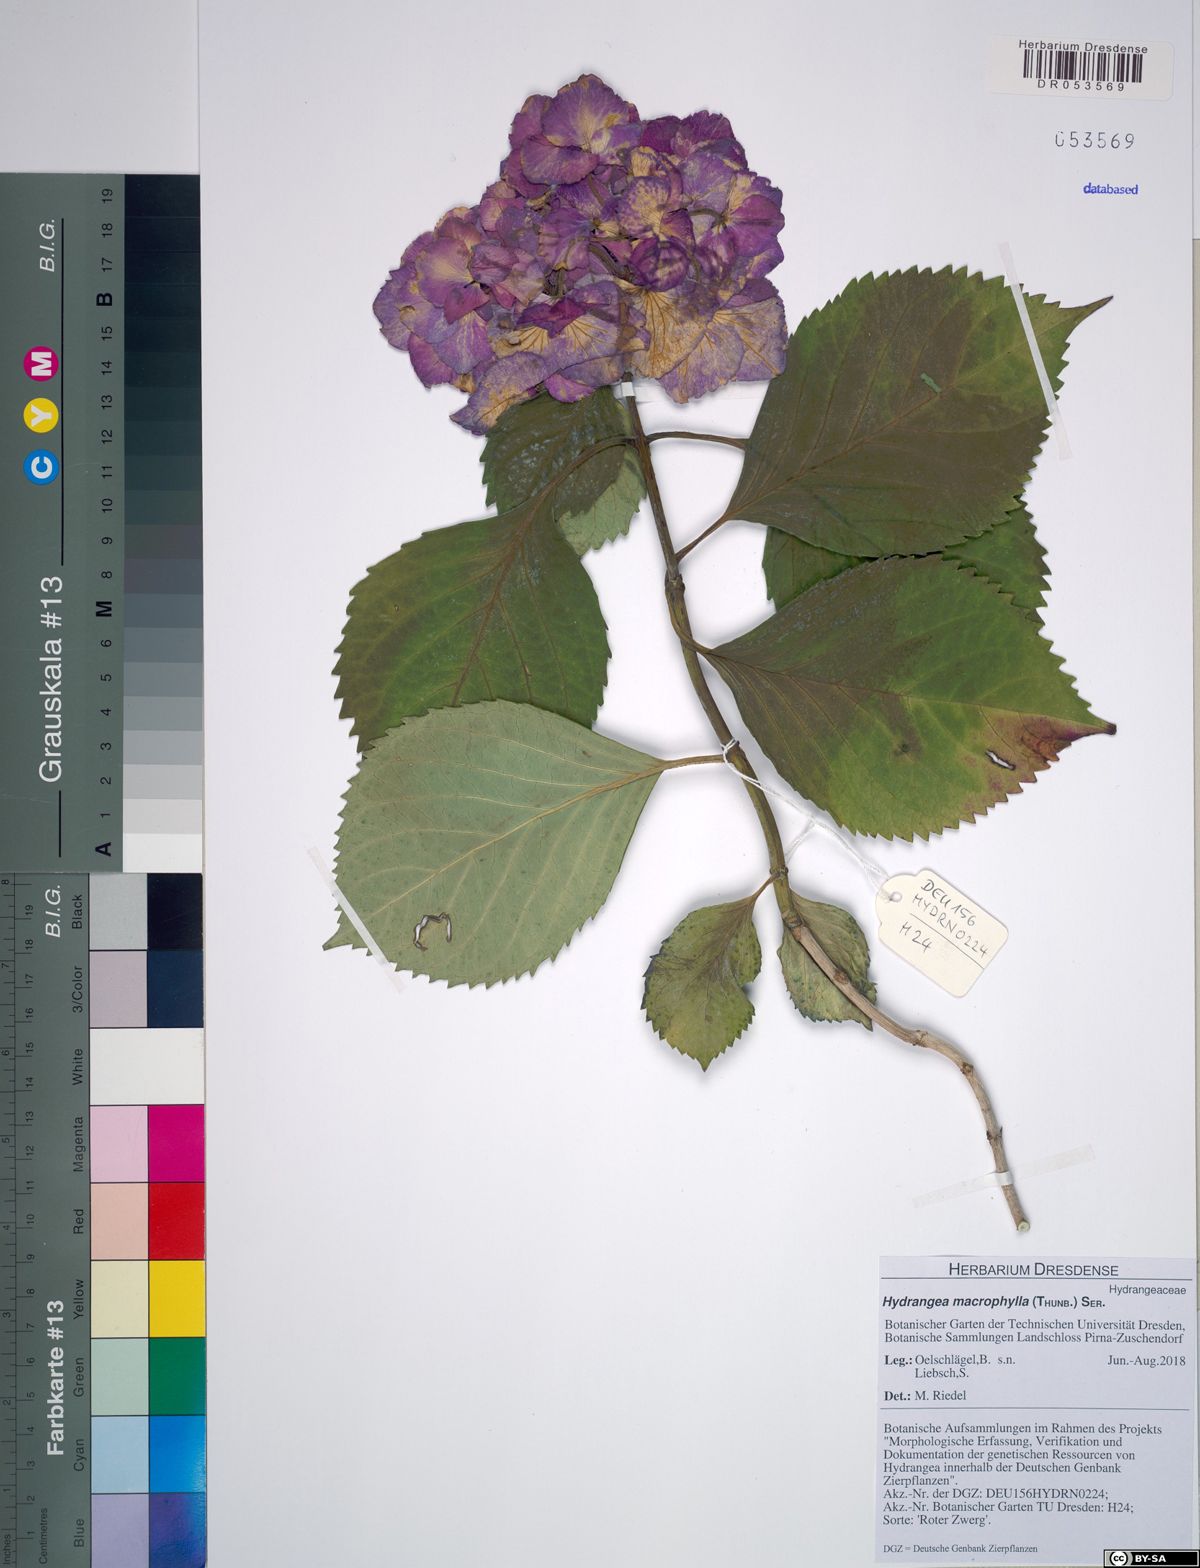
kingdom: Plantae
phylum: Tracheophyta
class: Magnoliopsida
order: Cornales
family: Hydrangeaceae
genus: Hydrangea
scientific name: Hydrangea macrophylla
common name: Hydrangea
